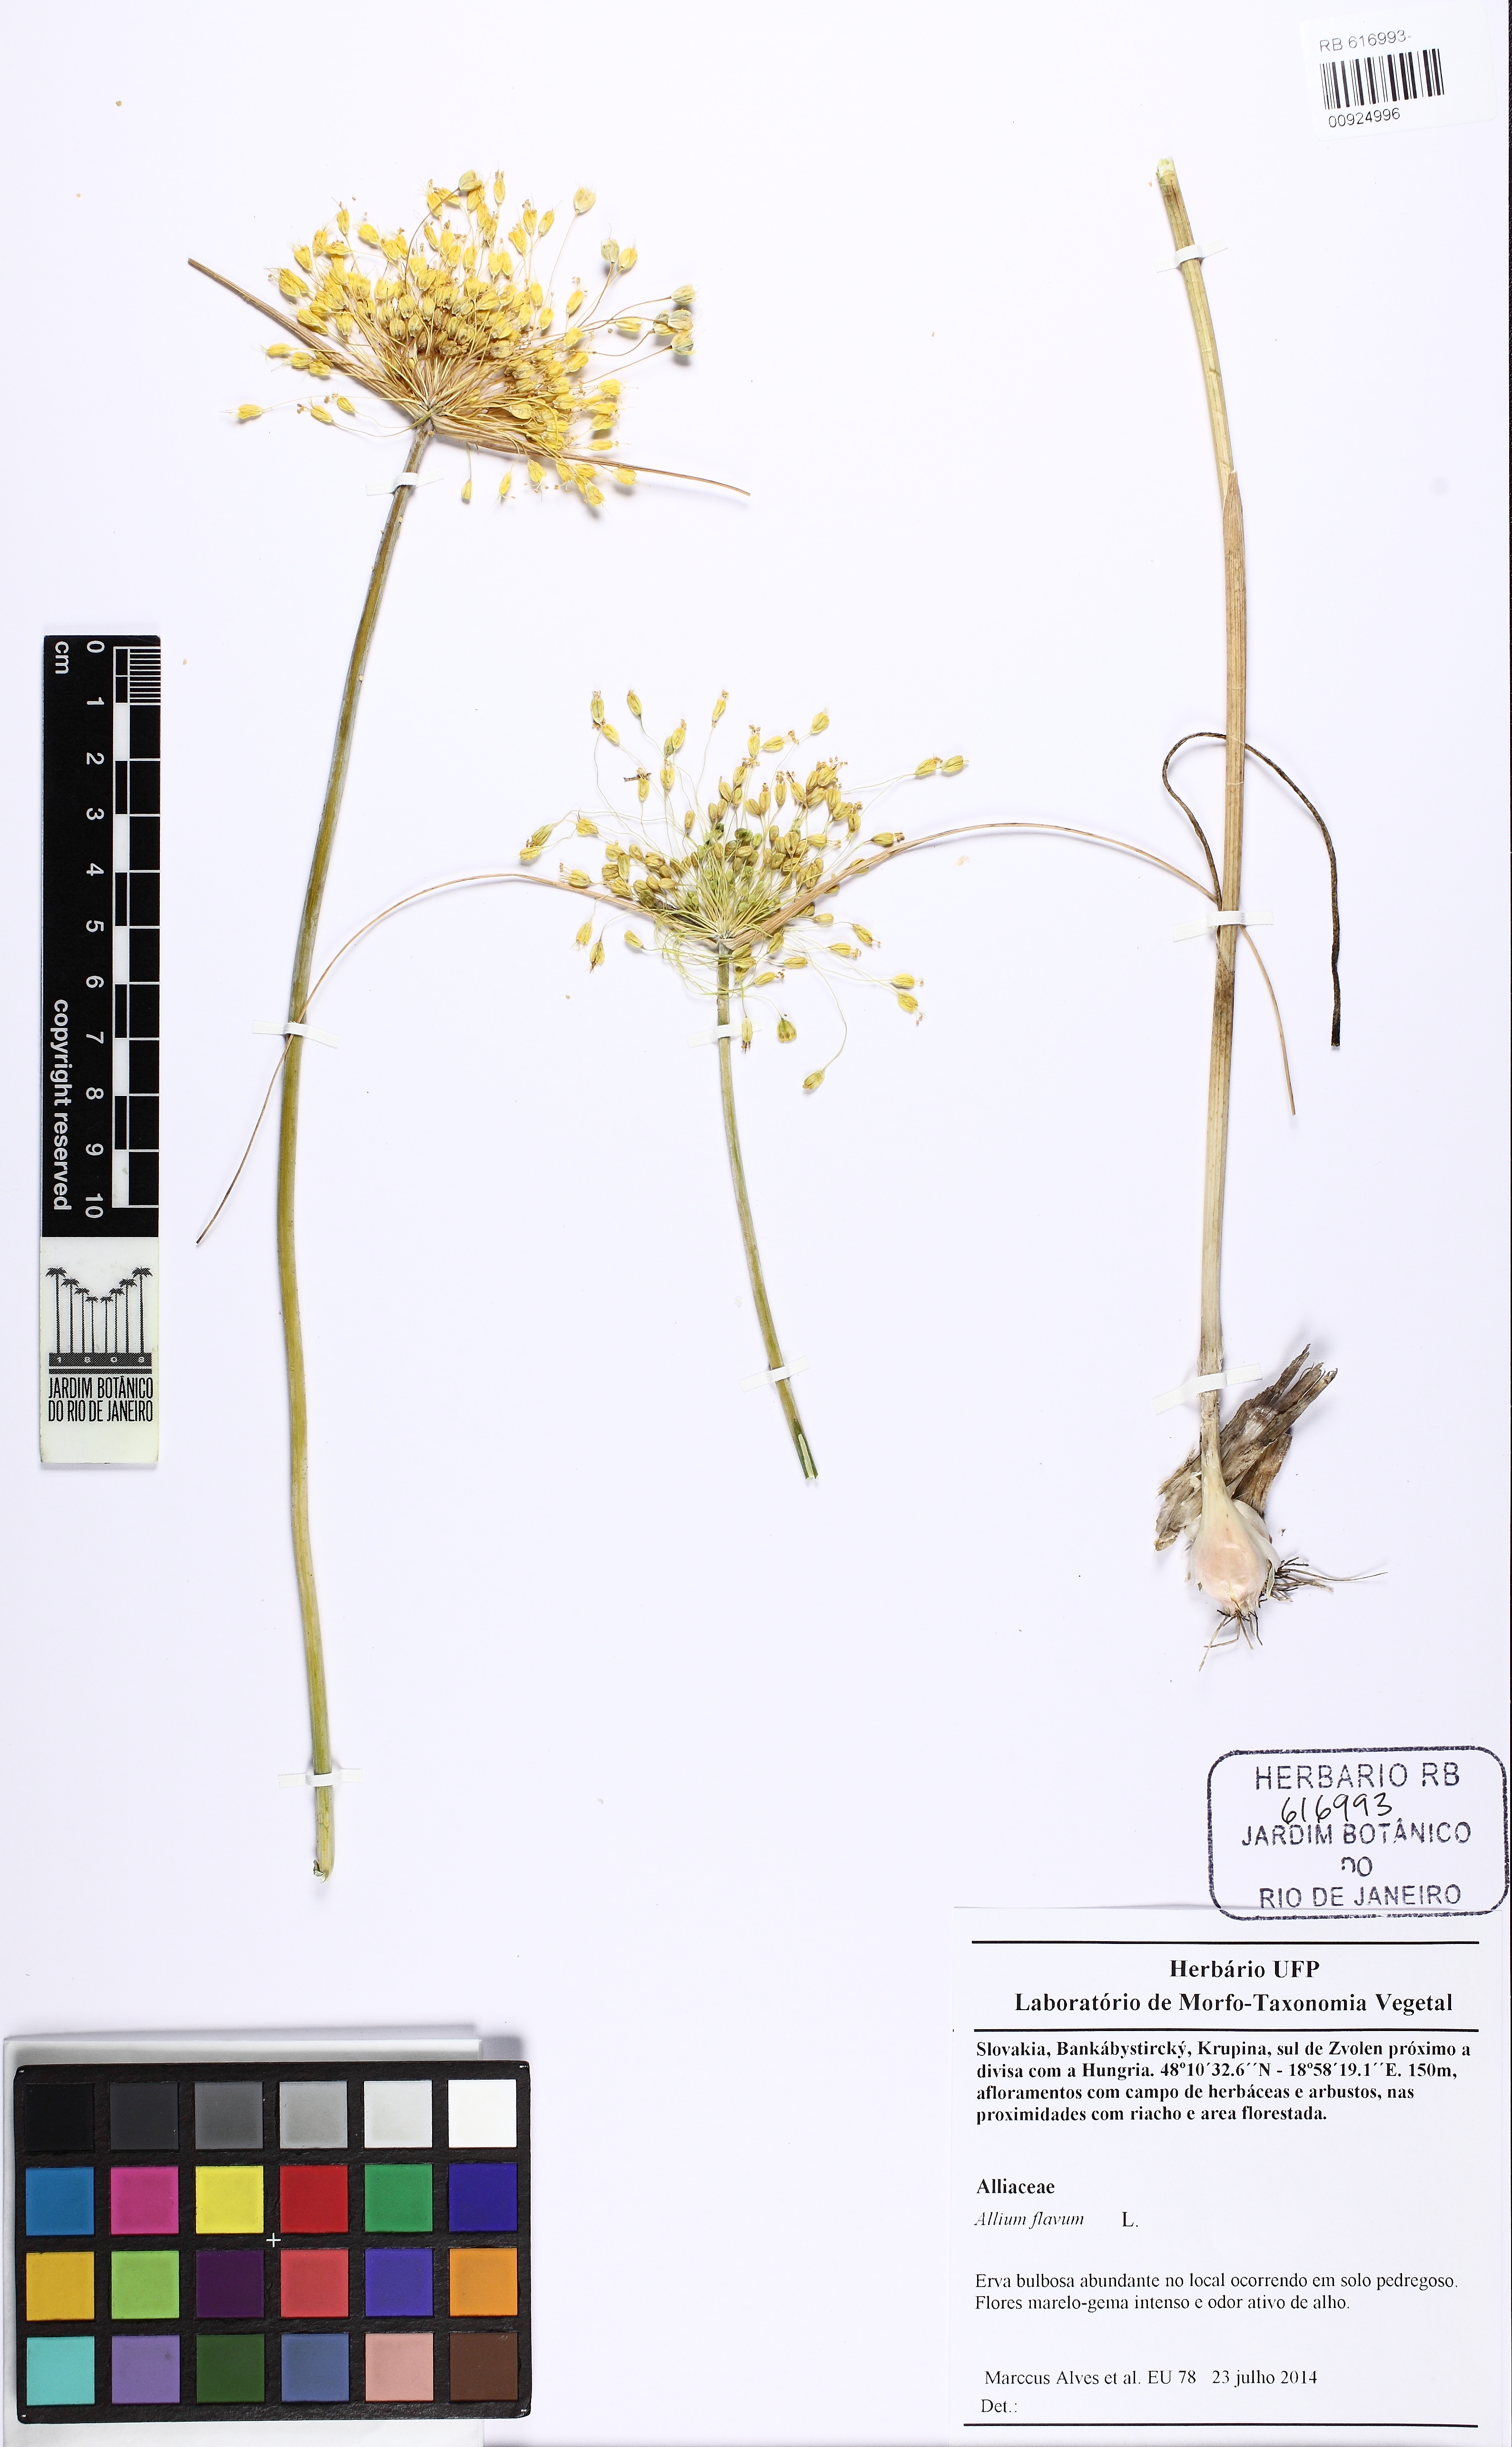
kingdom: Plantae
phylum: Tracheophyta
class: Liliopsida
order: Asparagales
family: Amaryllidaceae
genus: Allium
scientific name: Allium moly
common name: Yellow garlic
